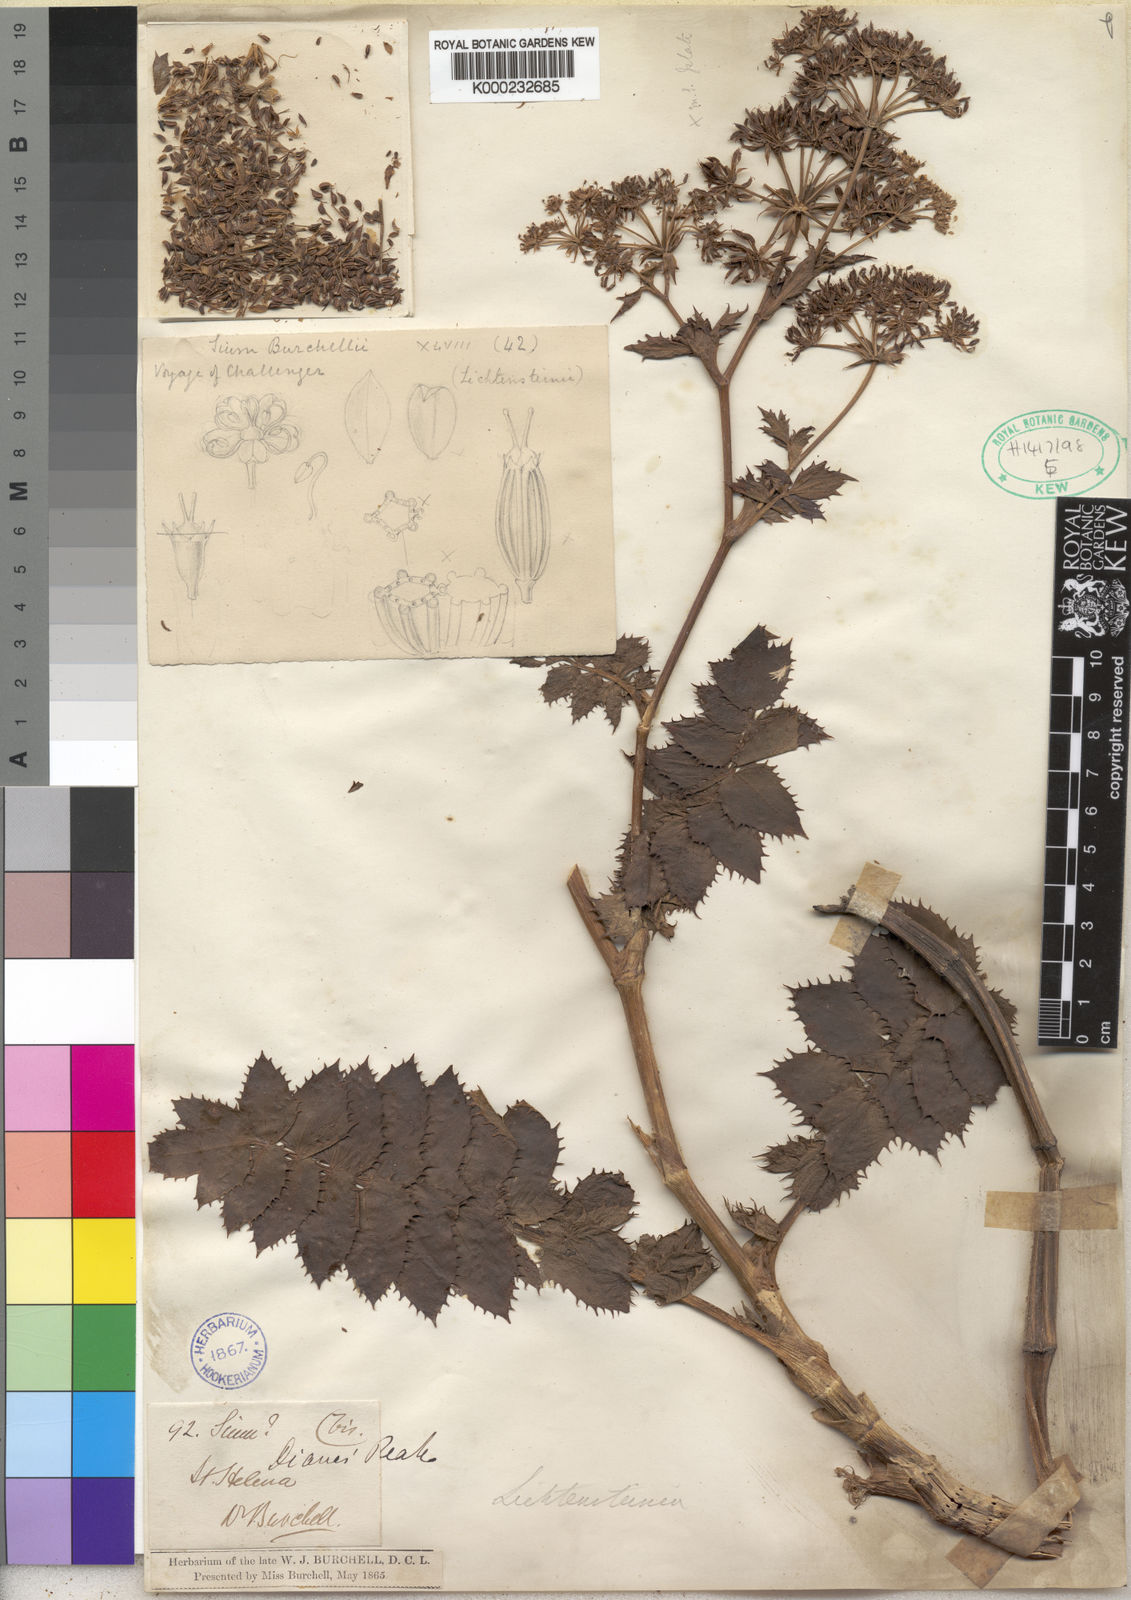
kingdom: Plantae
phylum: Tracheophyta
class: Magnoliopsida
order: Apiales
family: Apiaceae
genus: Berula
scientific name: Berula burchellii
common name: Dwarf jellico
